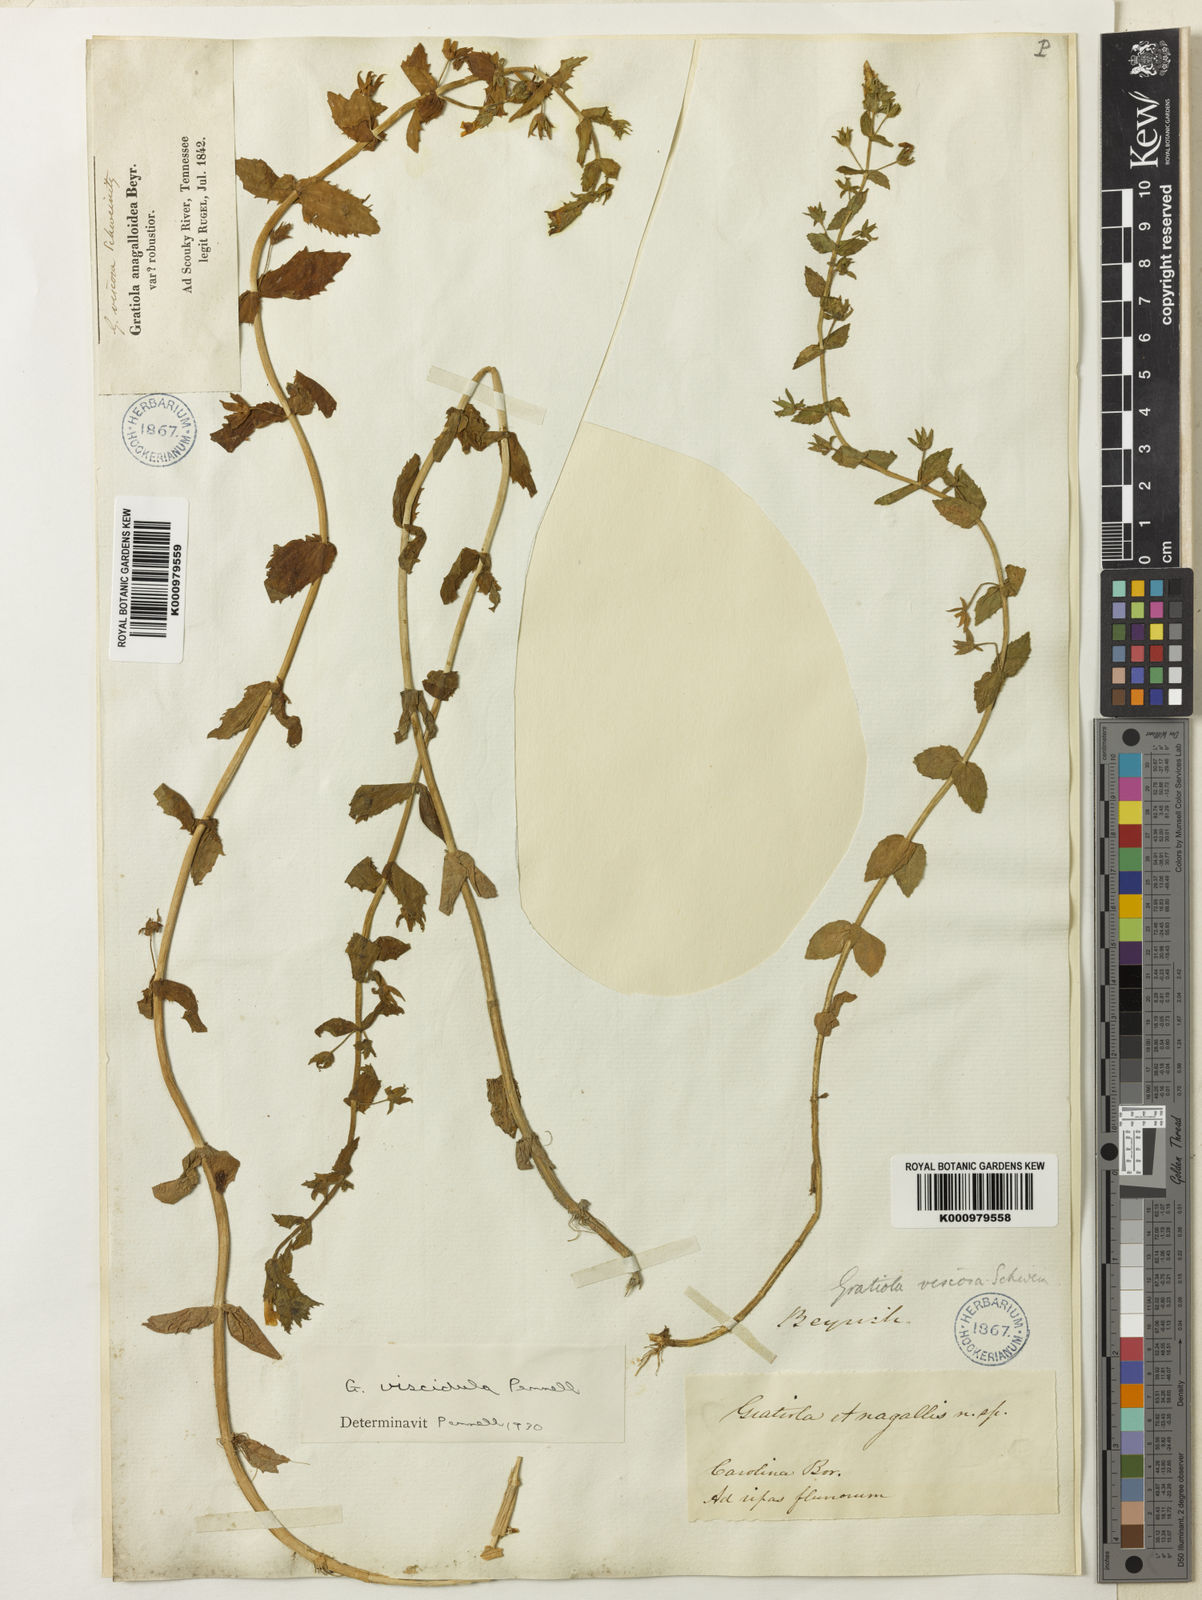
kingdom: Plantae
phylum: Tracheophyta
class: Magnoliopsida
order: Lamiales
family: Plantaginaceae
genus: Gratiola
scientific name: Gratiola lutea
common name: Golden hedge-hyssop
